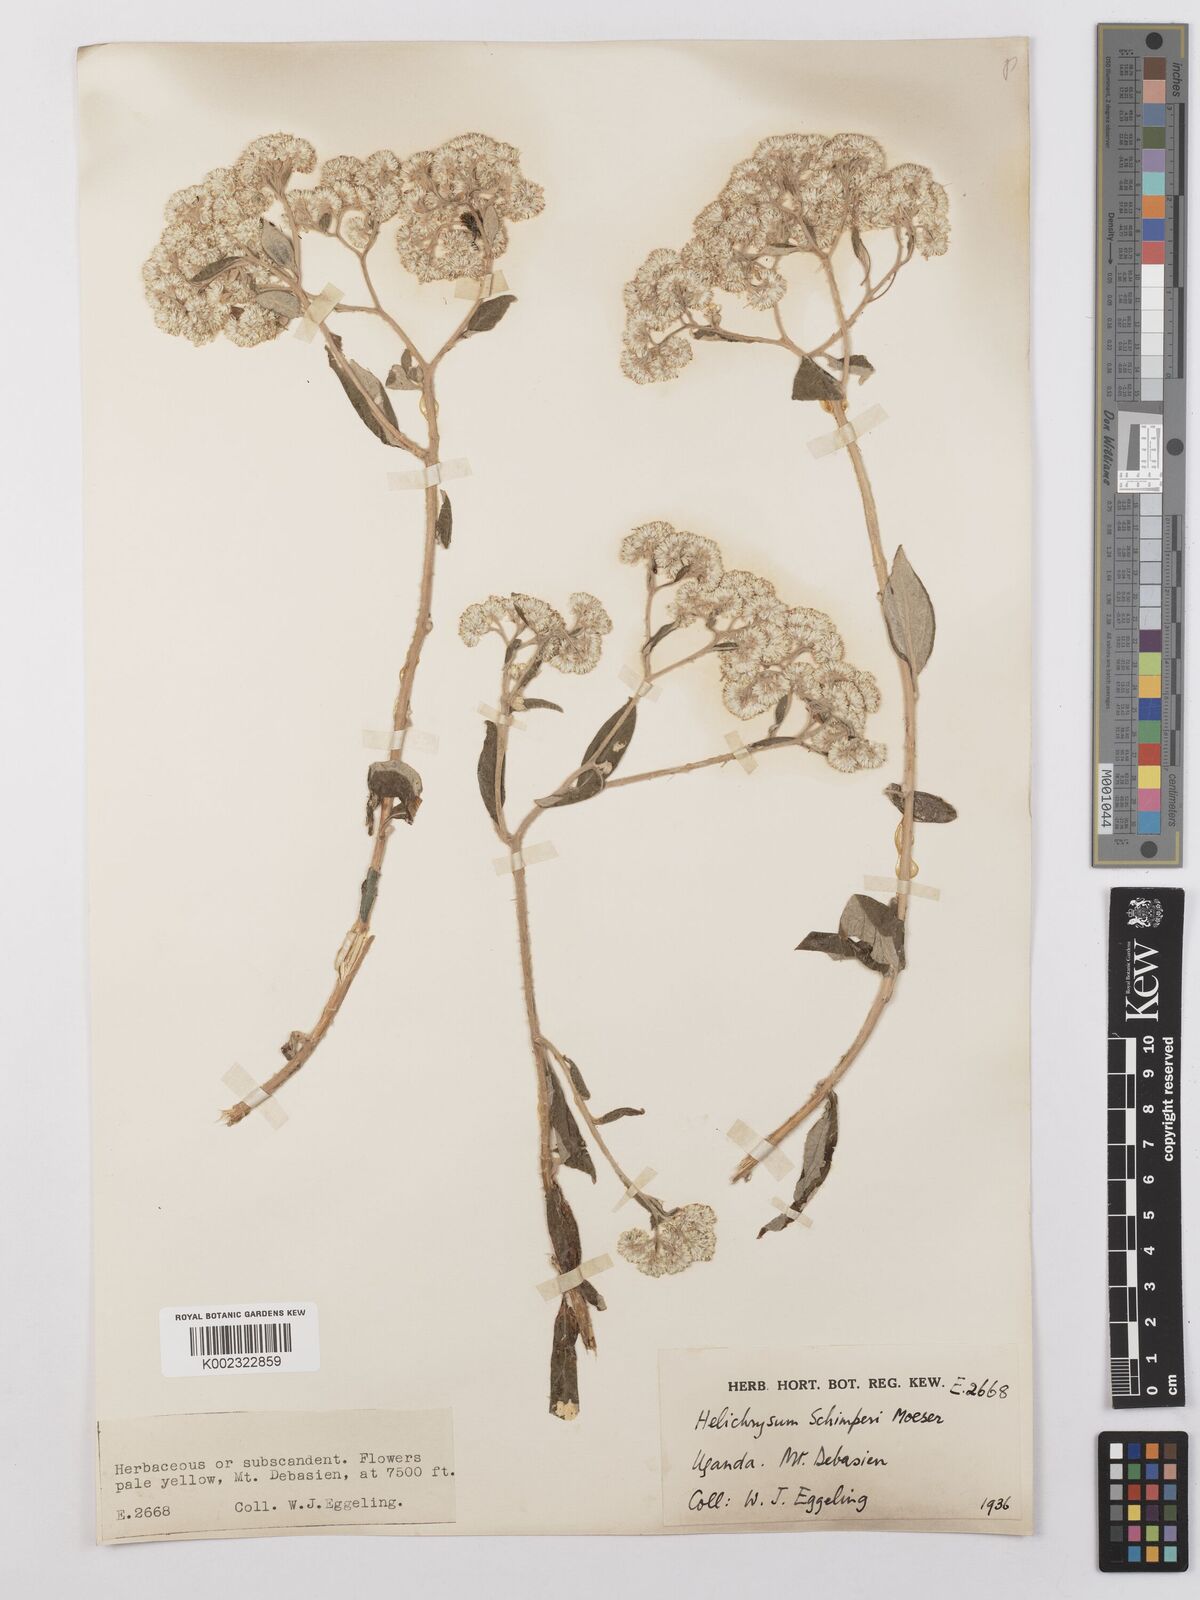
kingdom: Plantae
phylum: Tracheophyta
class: Magnoliopsida
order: Asterales
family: Asteraceae
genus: Helichrysum
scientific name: Helichrysum schimperi
